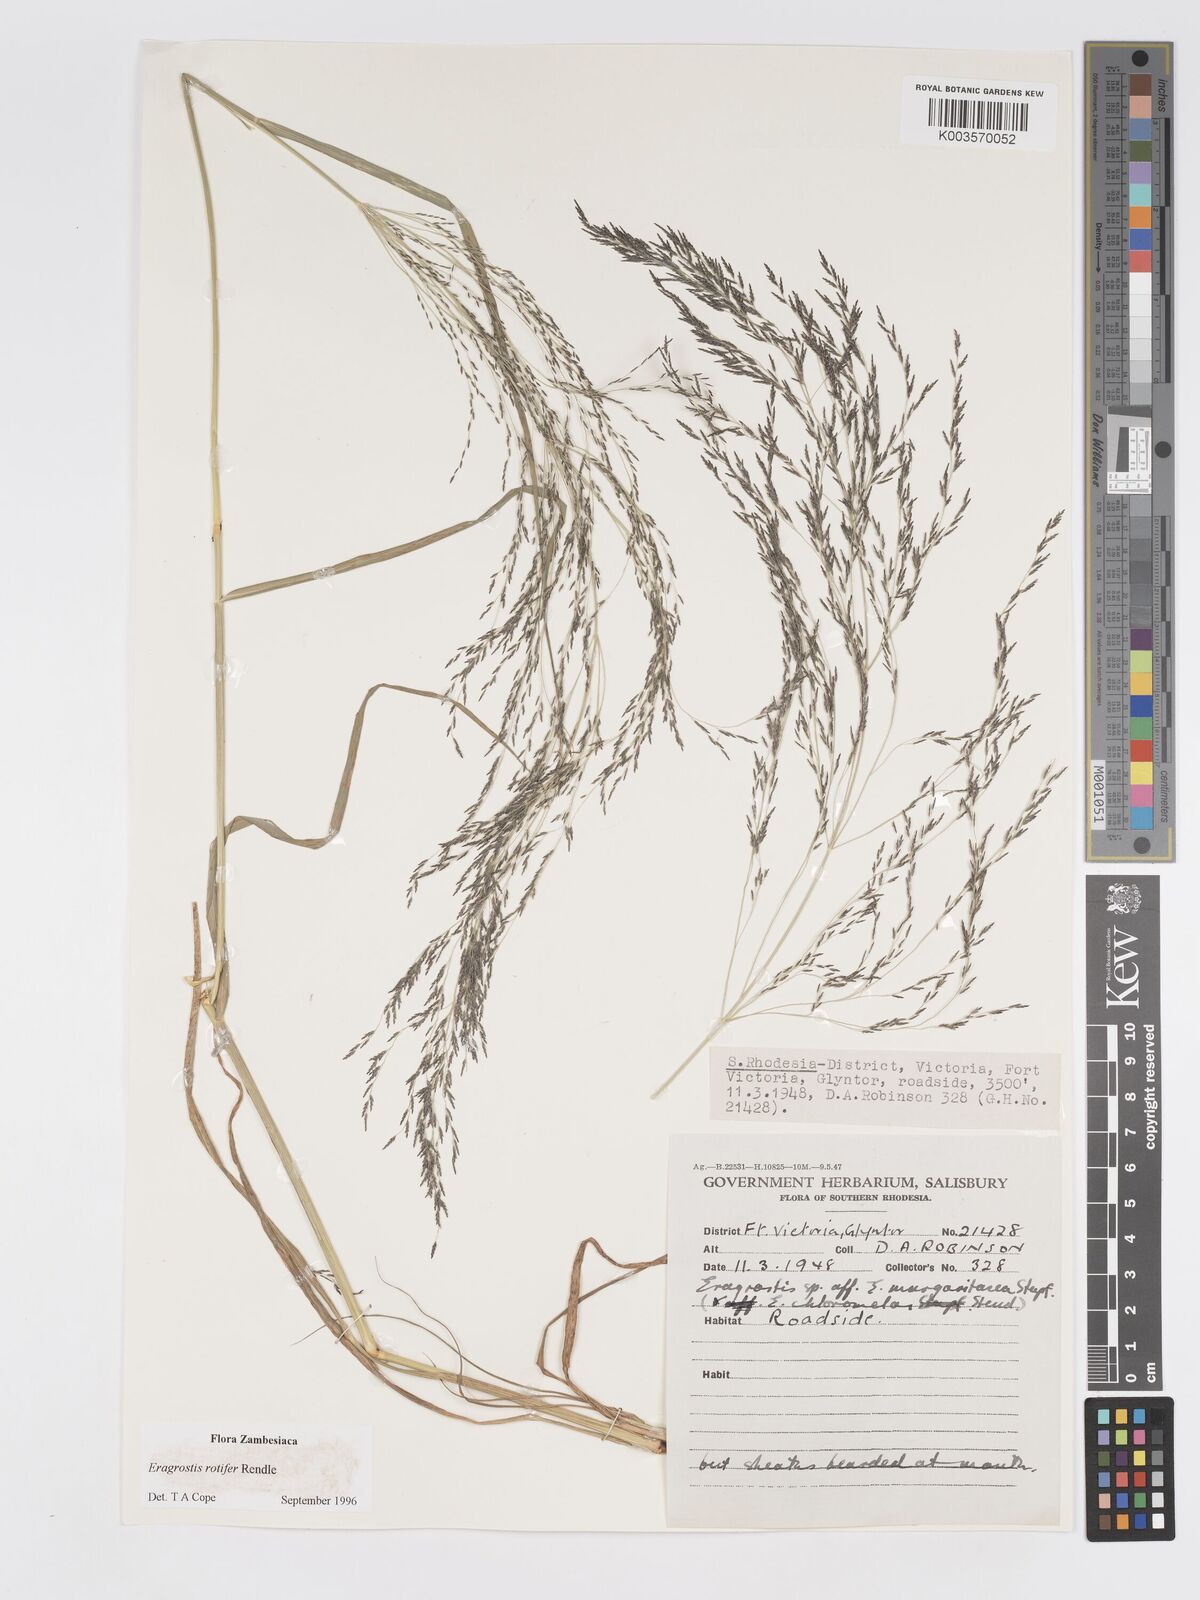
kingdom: Plantae
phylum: Tracheophyta
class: Liliopsida
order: Poales
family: Poaceae
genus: Eragrostis
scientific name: Eragrostis rotifer
